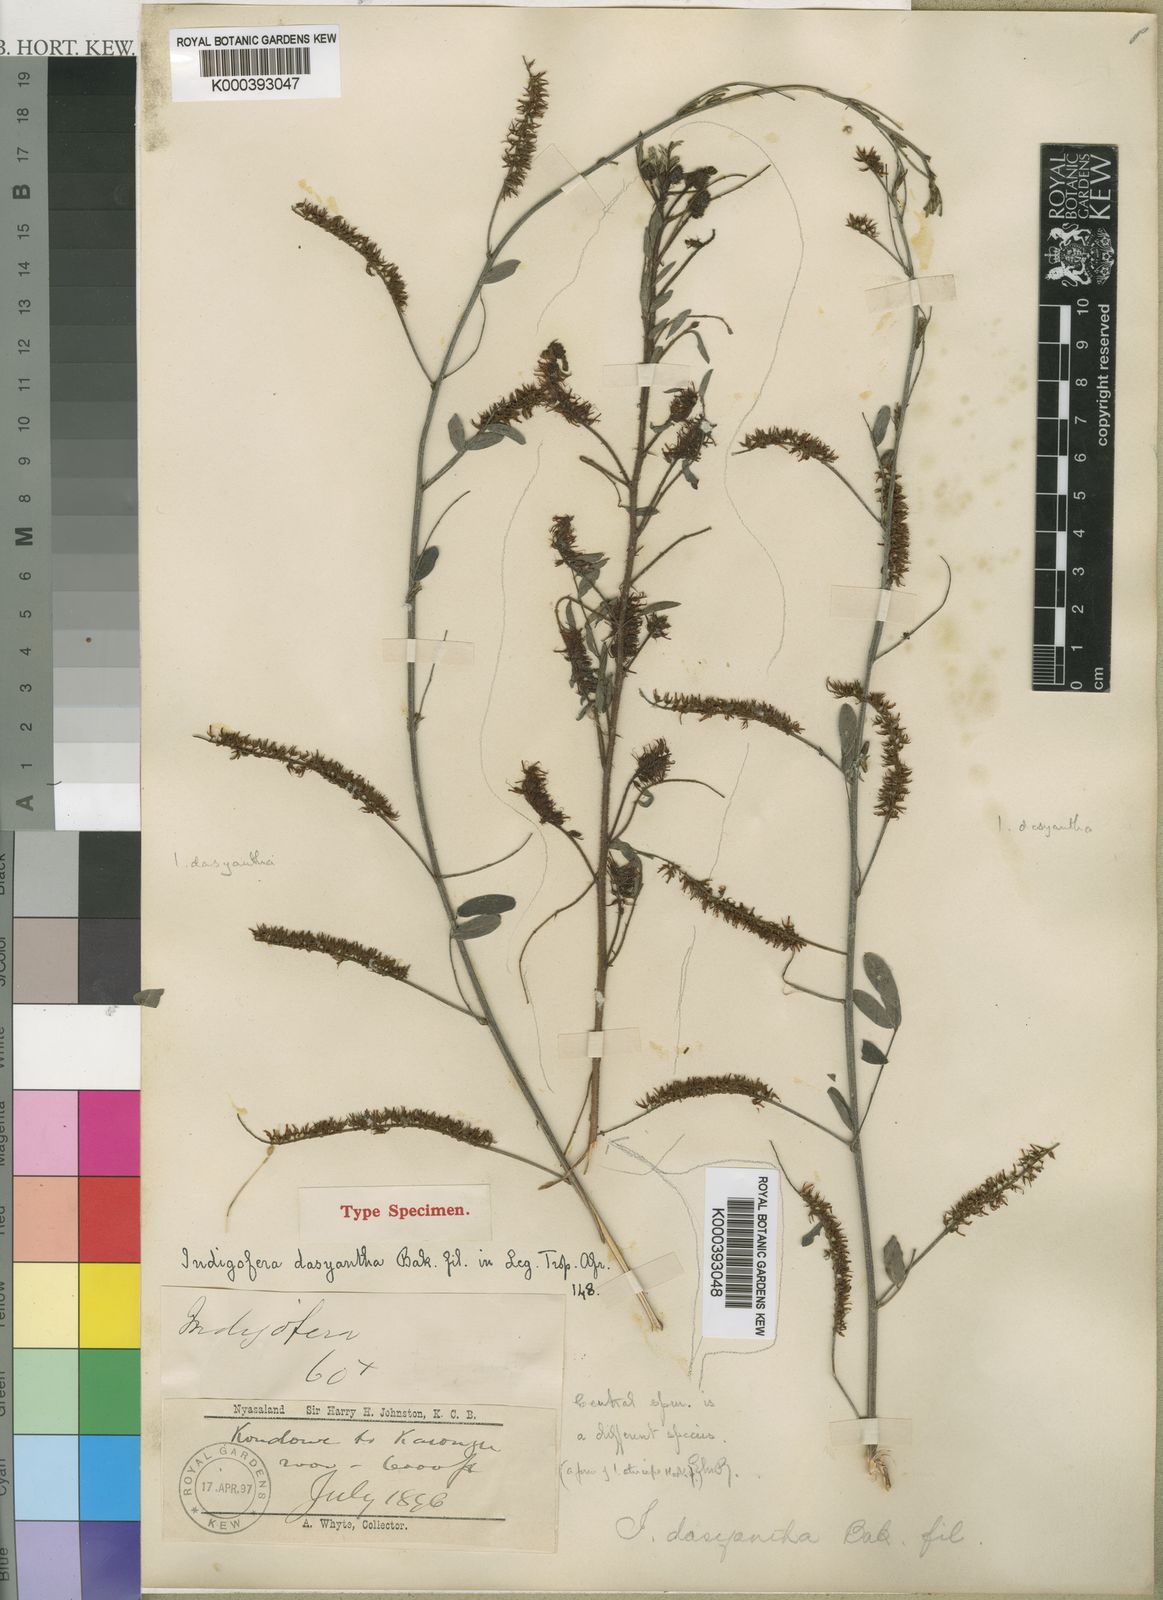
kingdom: Plantae
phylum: Tracheophyta
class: Magnoliopsida
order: Fabales
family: Fabaceae
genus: Indigofera
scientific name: Indigofera dasyantha
